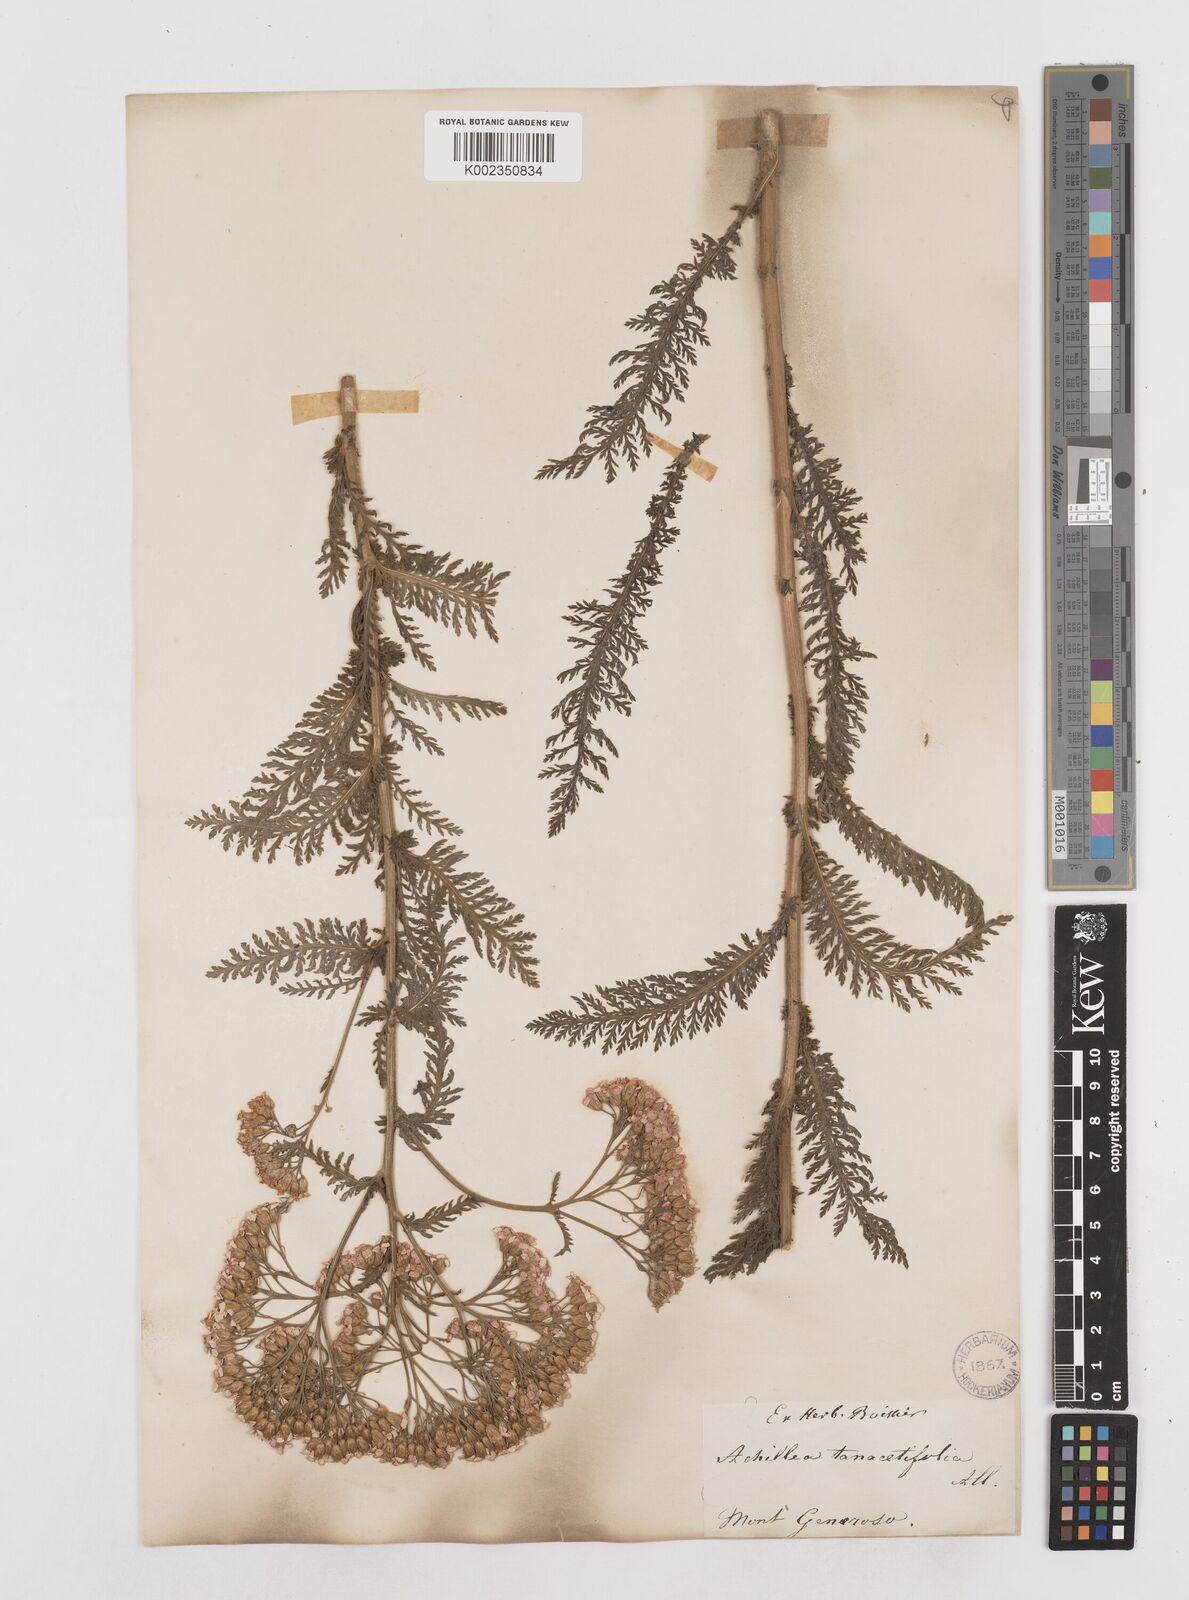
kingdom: Plantae
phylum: Tracheophyta
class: Magnoliopsida
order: Asterales
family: Asteraceae
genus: Achillea
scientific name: Achillea distans
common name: Tall yarrow
